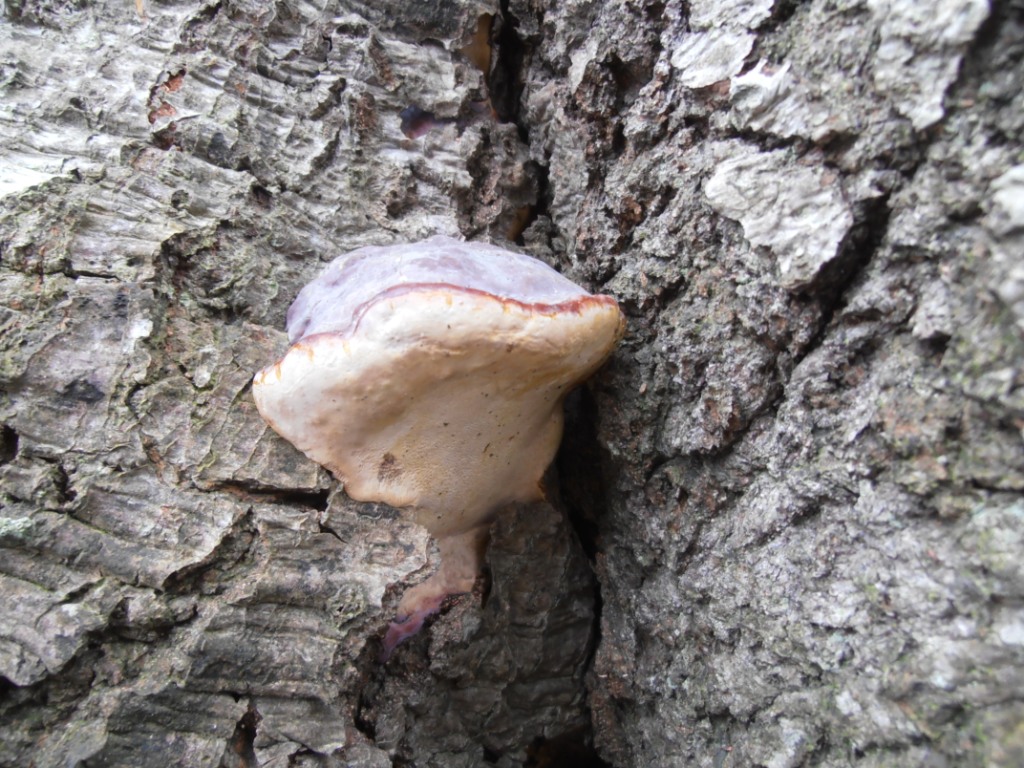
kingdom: Fungi
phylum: Basidiomycota
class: Agaricomycetes
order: Polyporales
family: Polyporaceae
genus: Ganoderma
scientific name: Ganoderma pfeifferi
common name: kobberrød lakporesvamp
